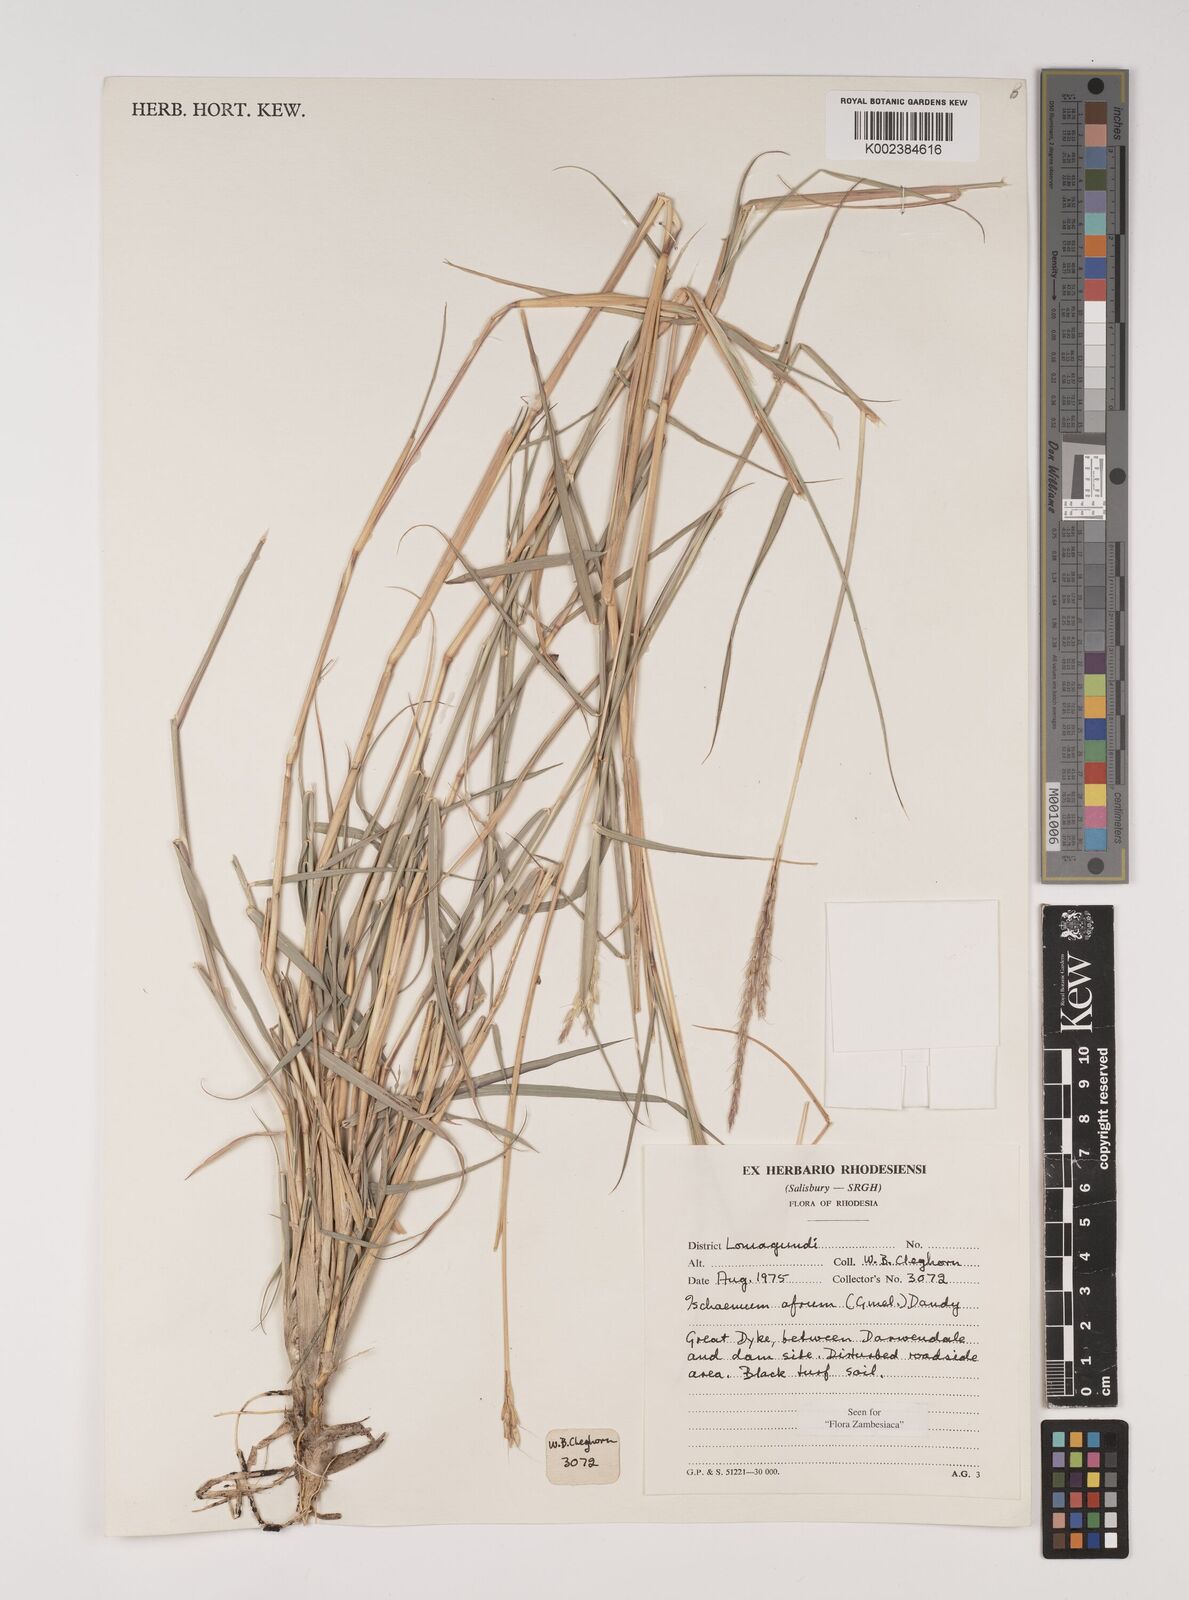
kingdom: Plantae
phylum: Tracheophyta
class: Liliopsida
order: Poales
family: Poaceae
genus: Ischaemum
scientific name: Ischaemum afrum
